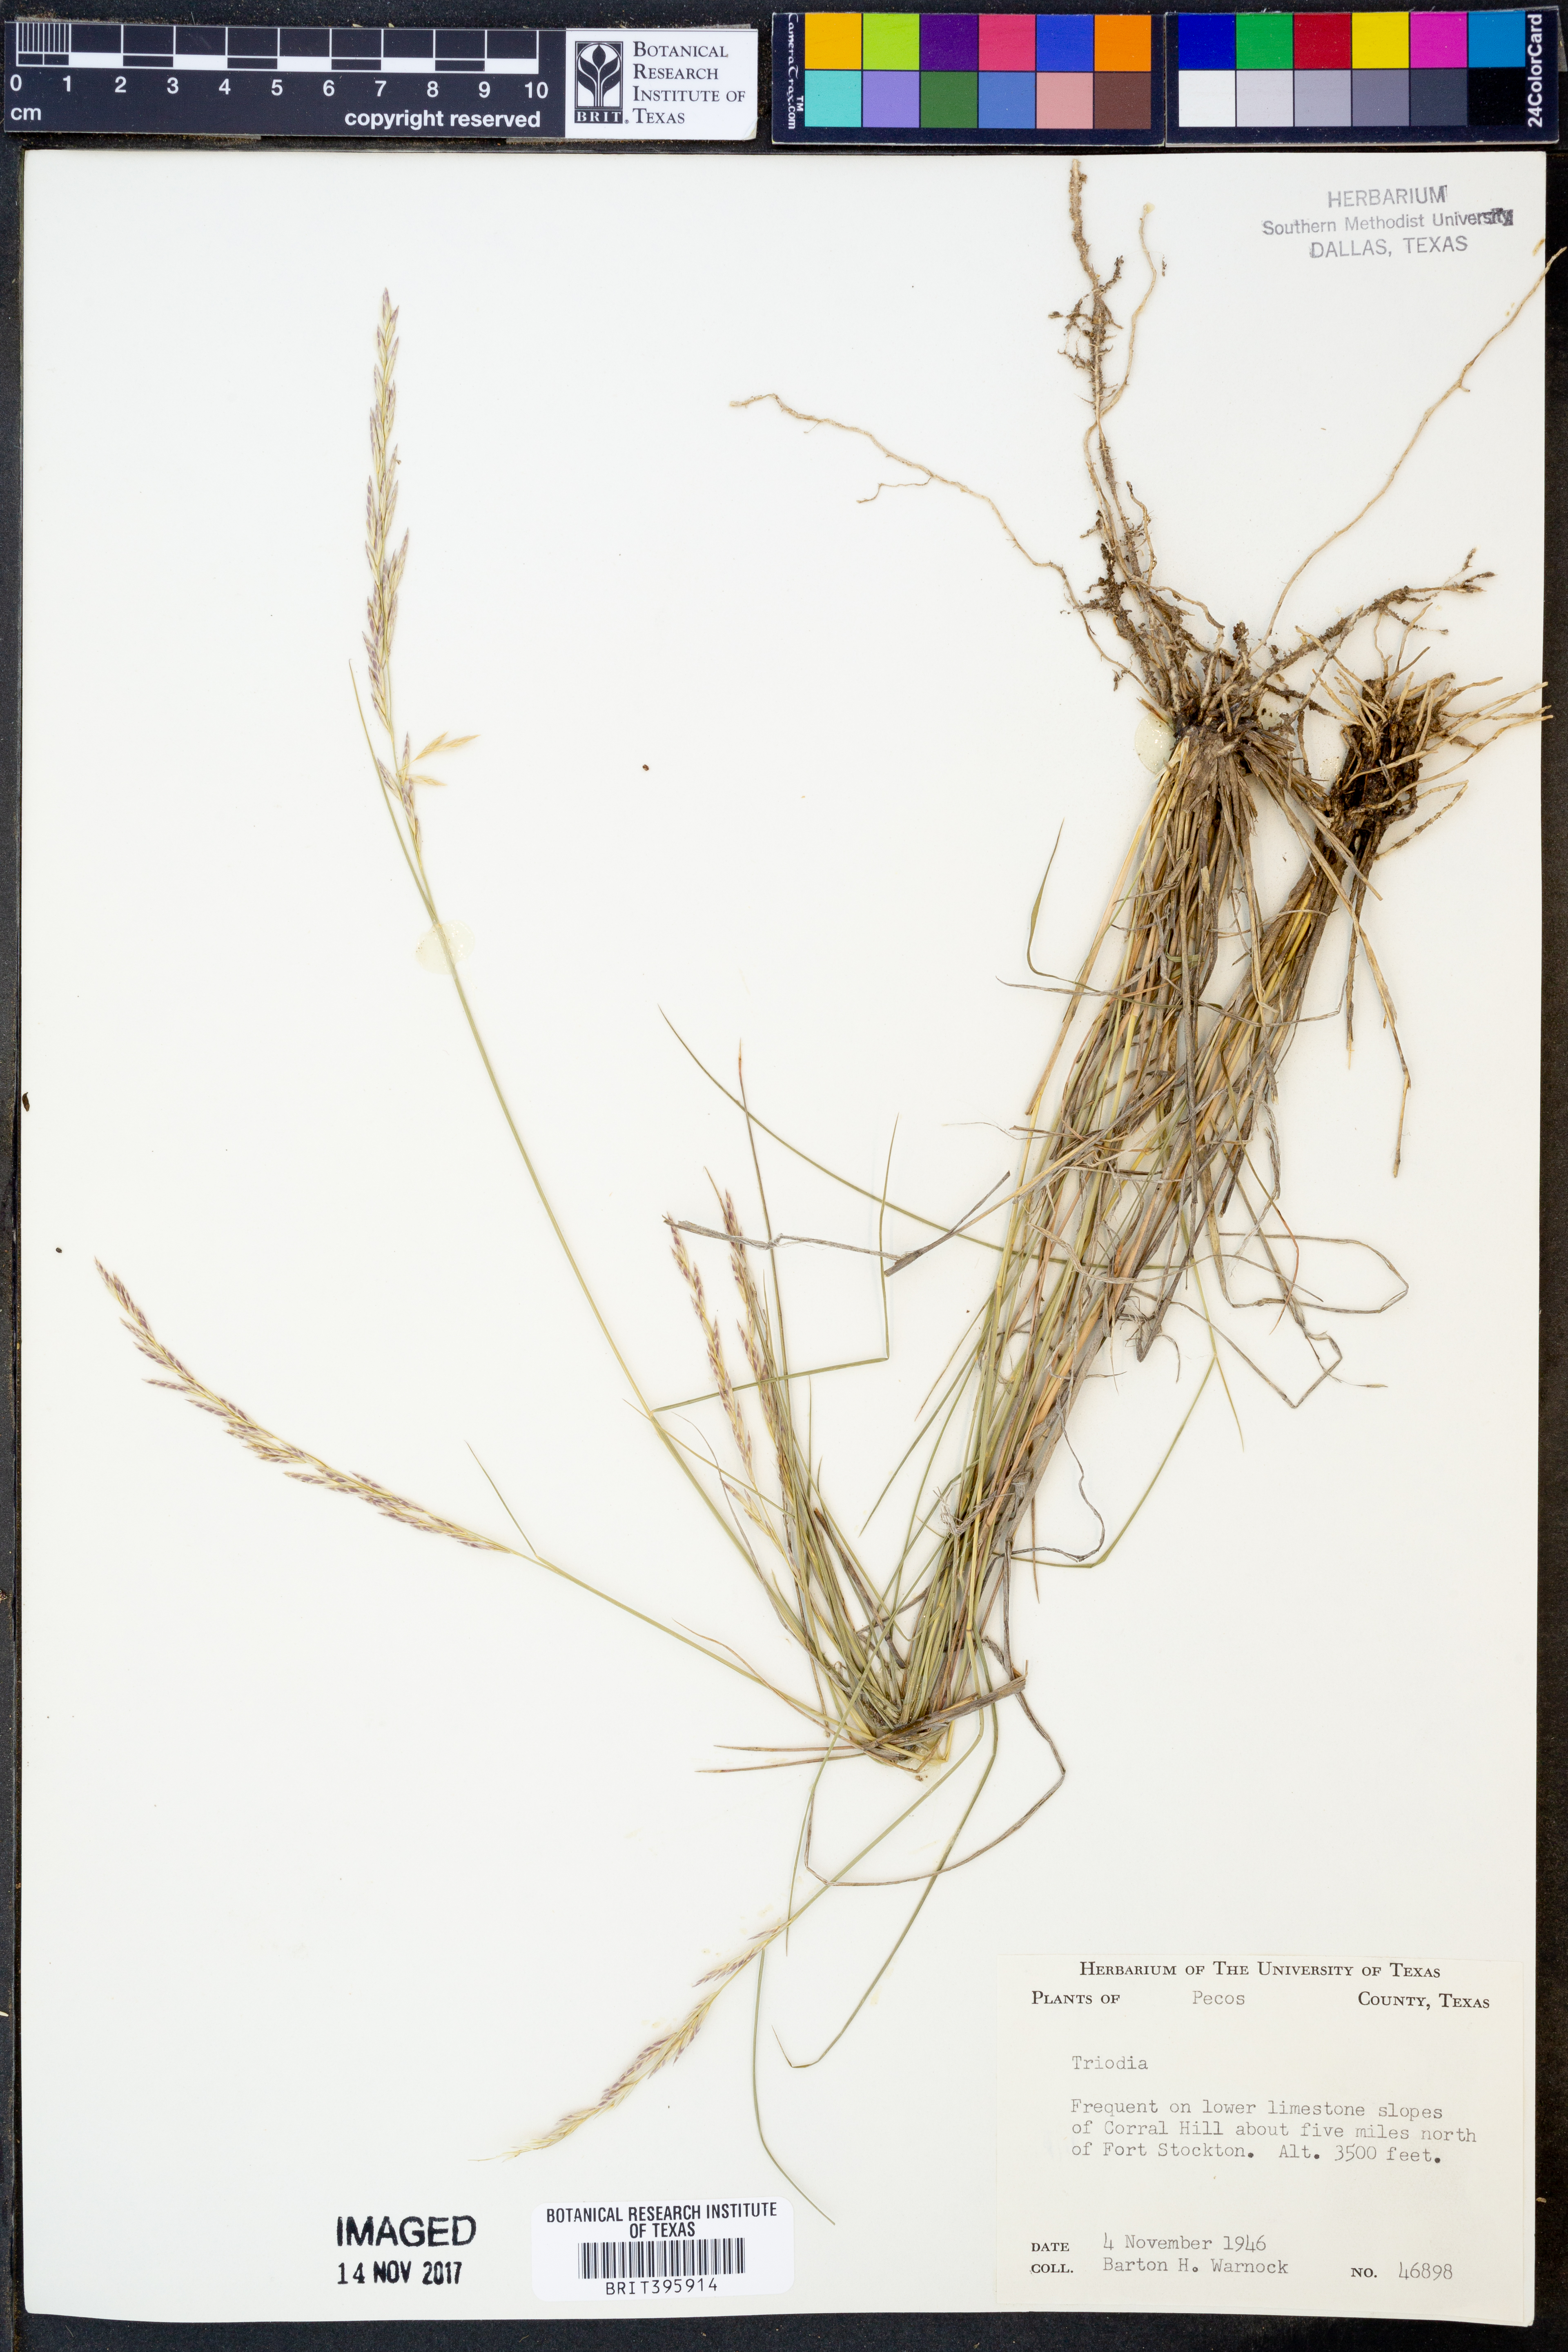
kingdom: Plantae
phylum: Tracheophyta
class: Liliopsida
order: Poales
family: Poaceae
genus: Triodia
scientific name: Triodia
